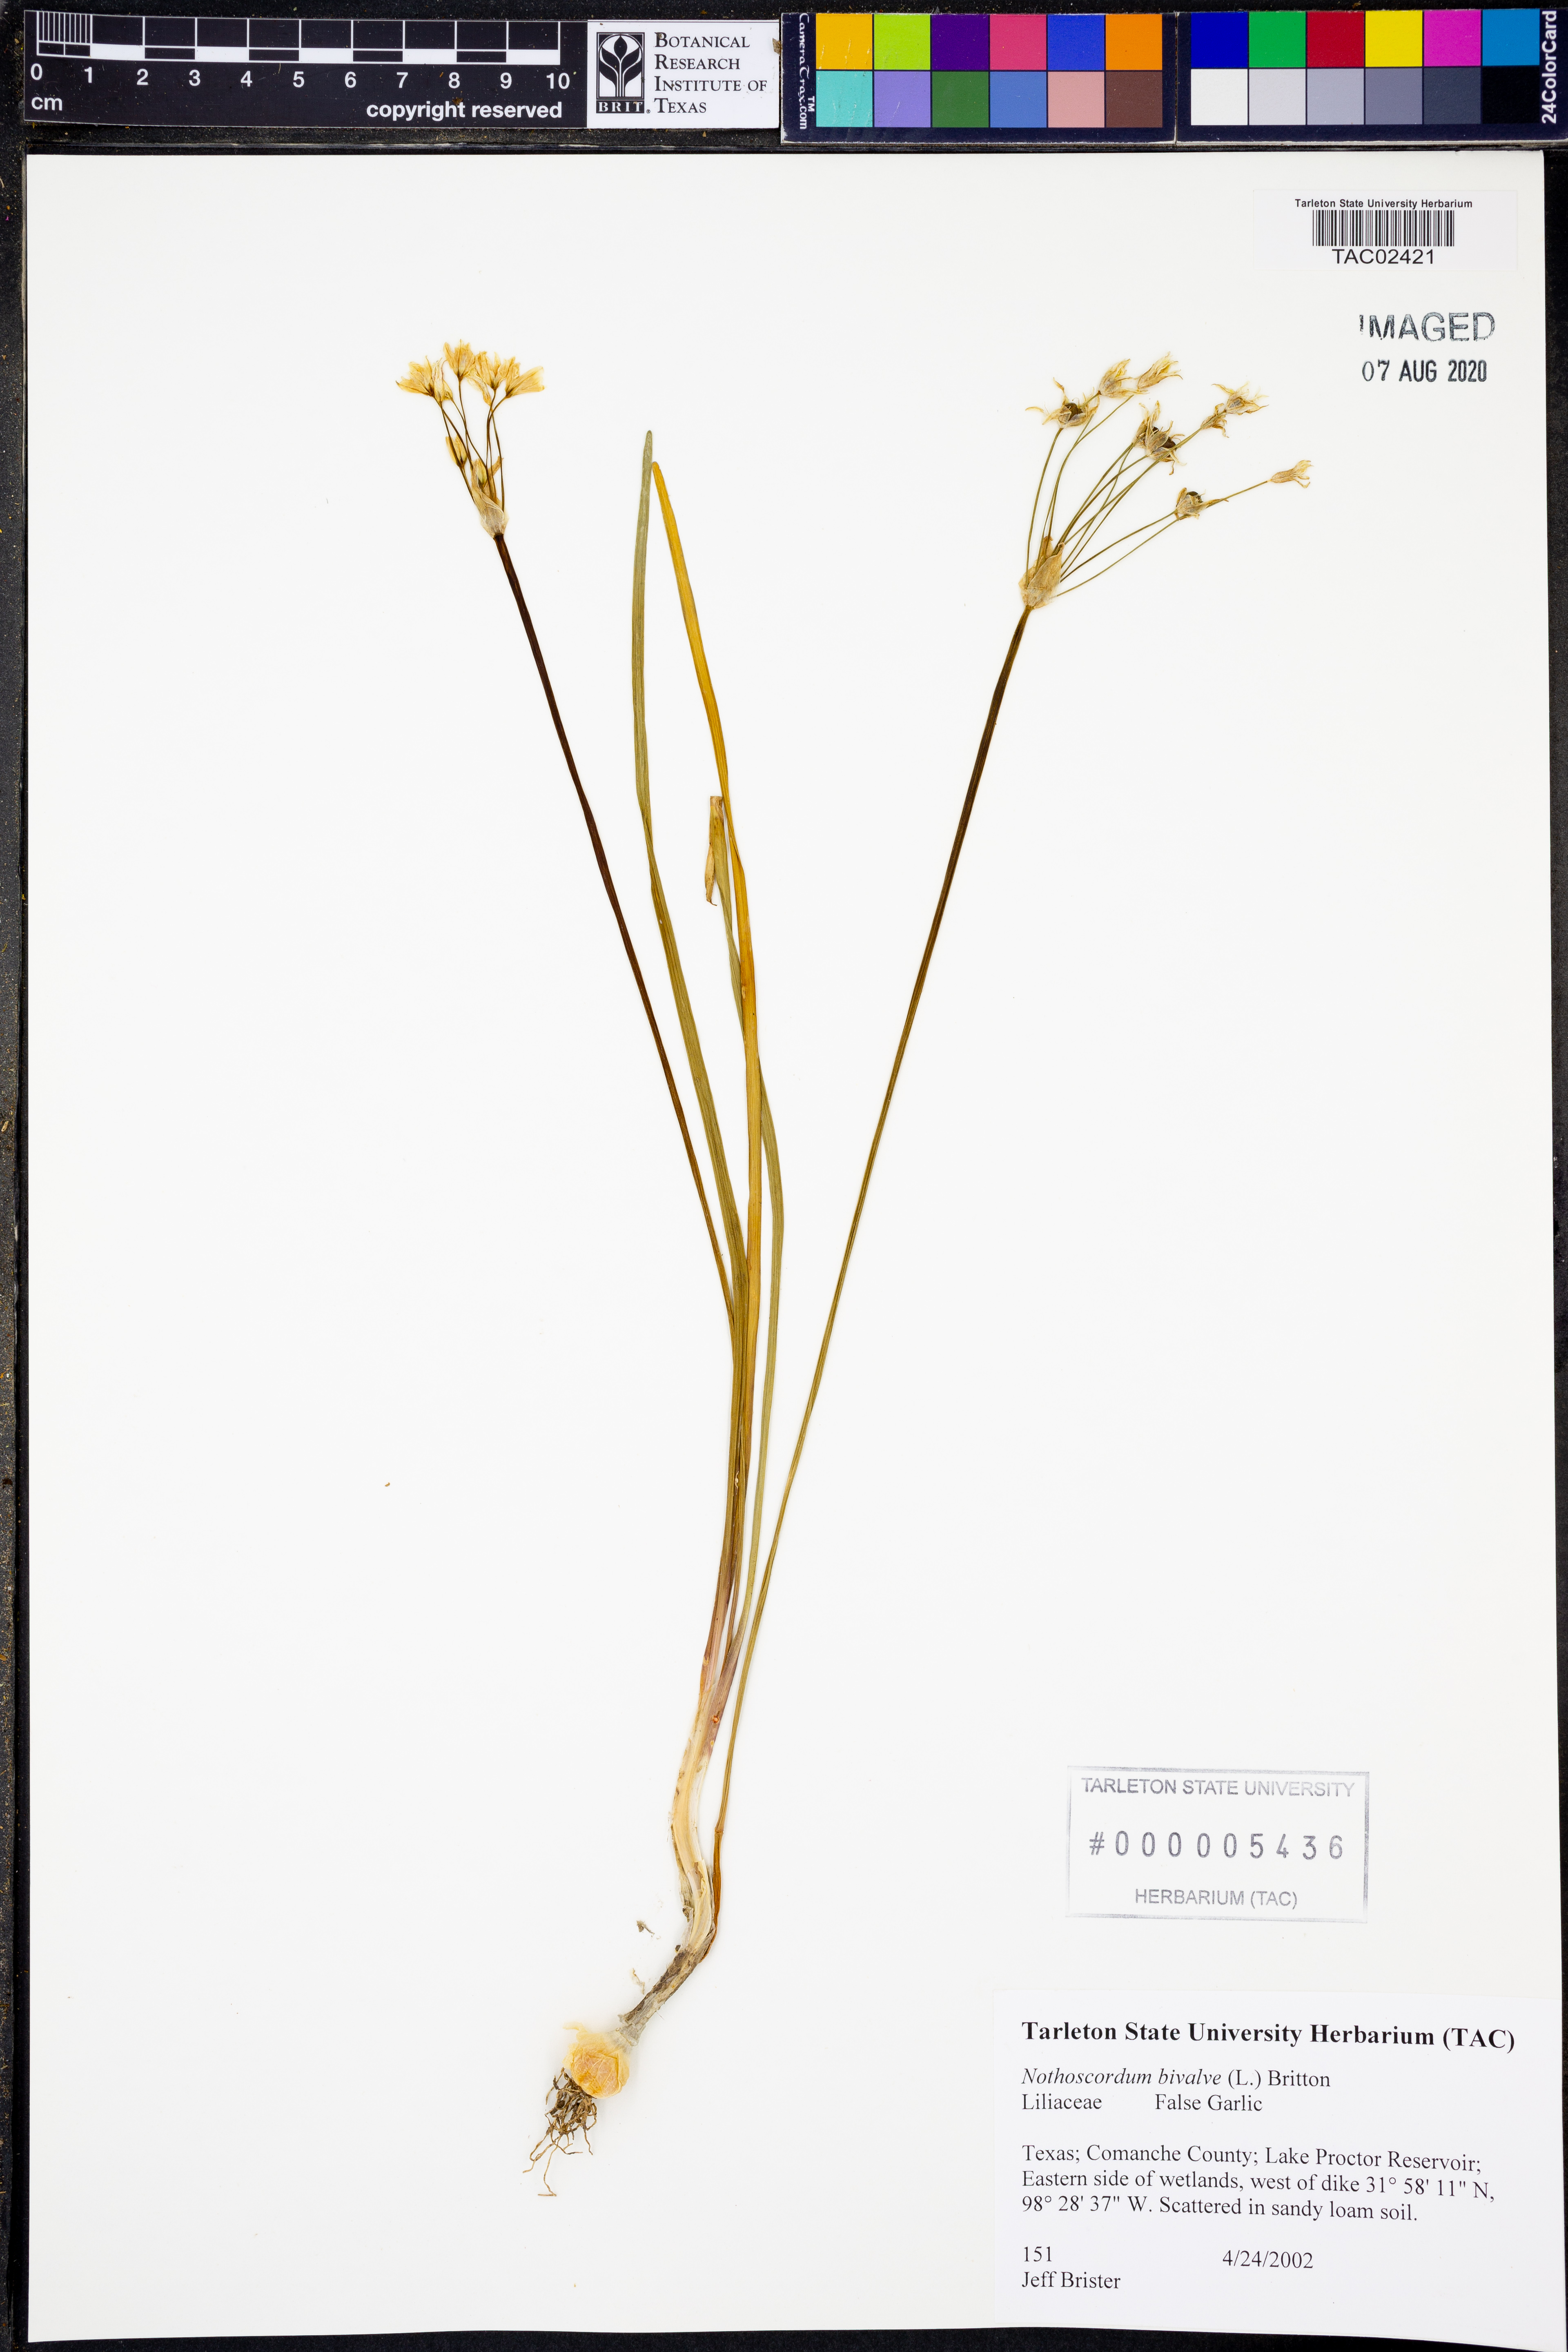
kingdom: Plantae
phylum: Tracheophyta
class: Liliopsida
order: Asparagales
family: Amaryllidaceae
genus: Nothoscordum
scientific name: Nothoscordum bivalve
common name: Crow-poison
